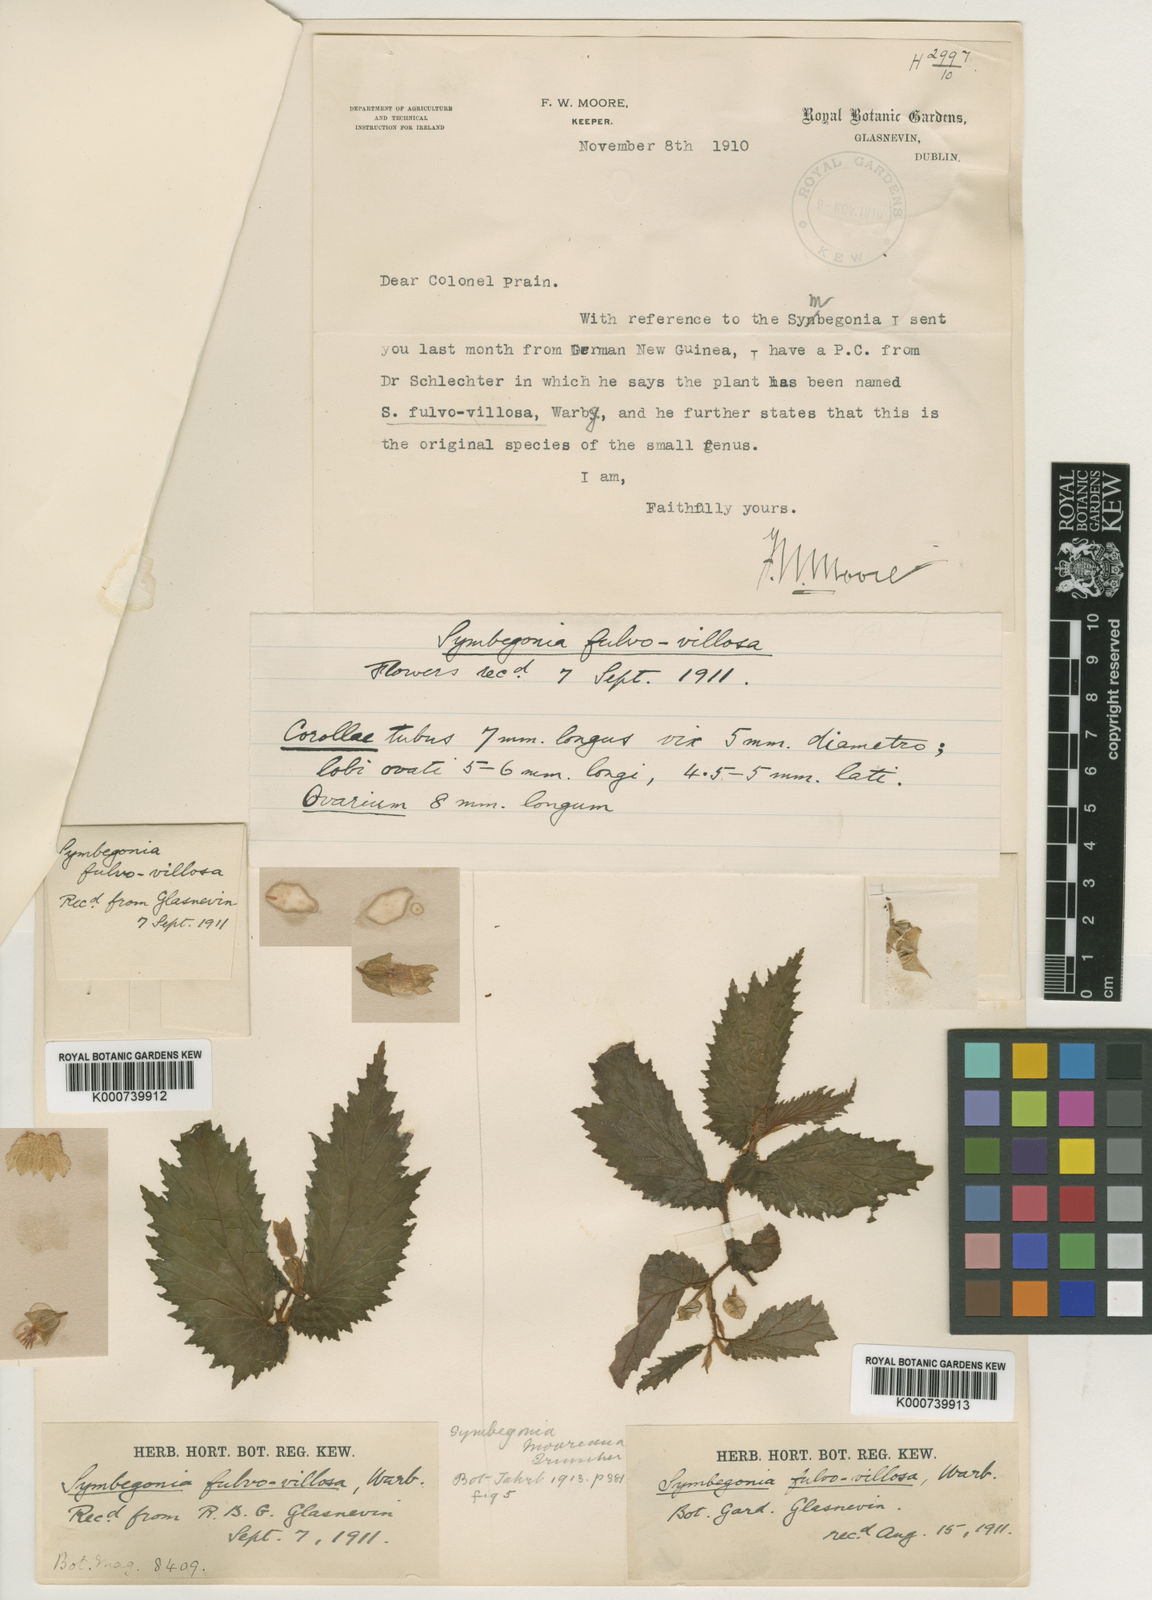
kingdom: Plantae
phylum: Tracheophyta
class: Magnoliopsida
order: Cucurbitales
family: Begoniaceae
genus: Begonia
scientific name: Begonia mooreana
